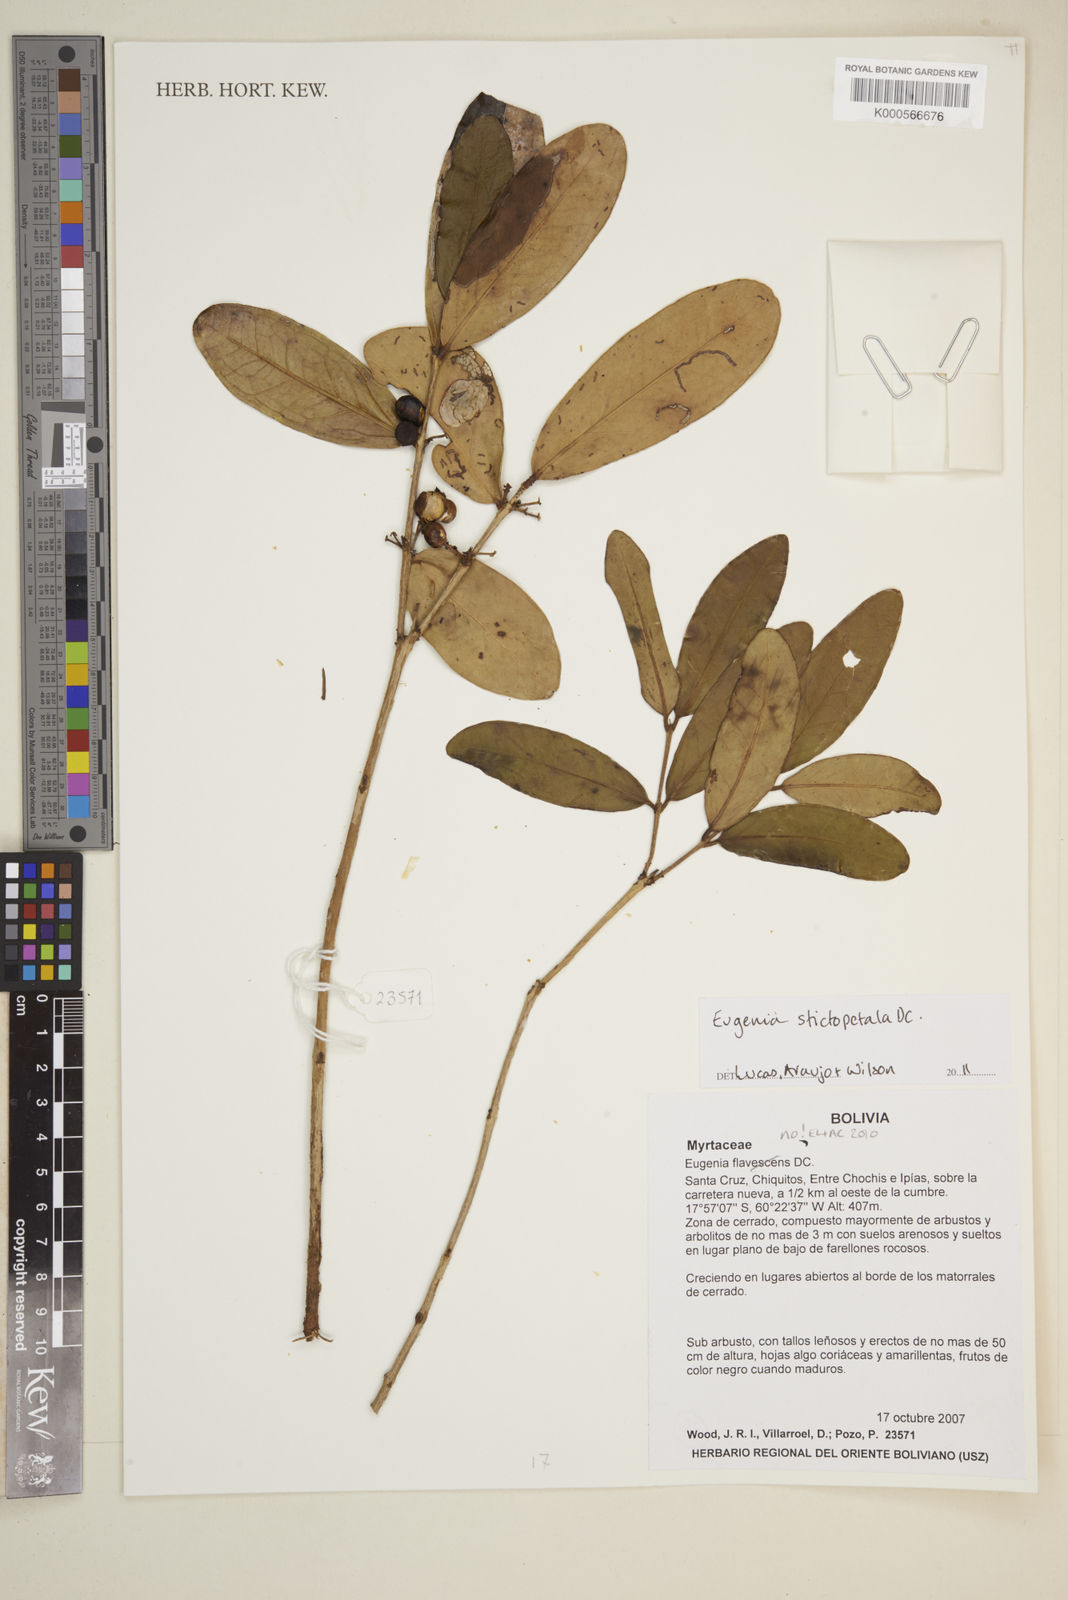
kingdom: Plantae
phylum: Tracheophyta
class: Magnoliopsida
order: Myrtales
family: Myrtaceae
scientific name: Myrtaceae
